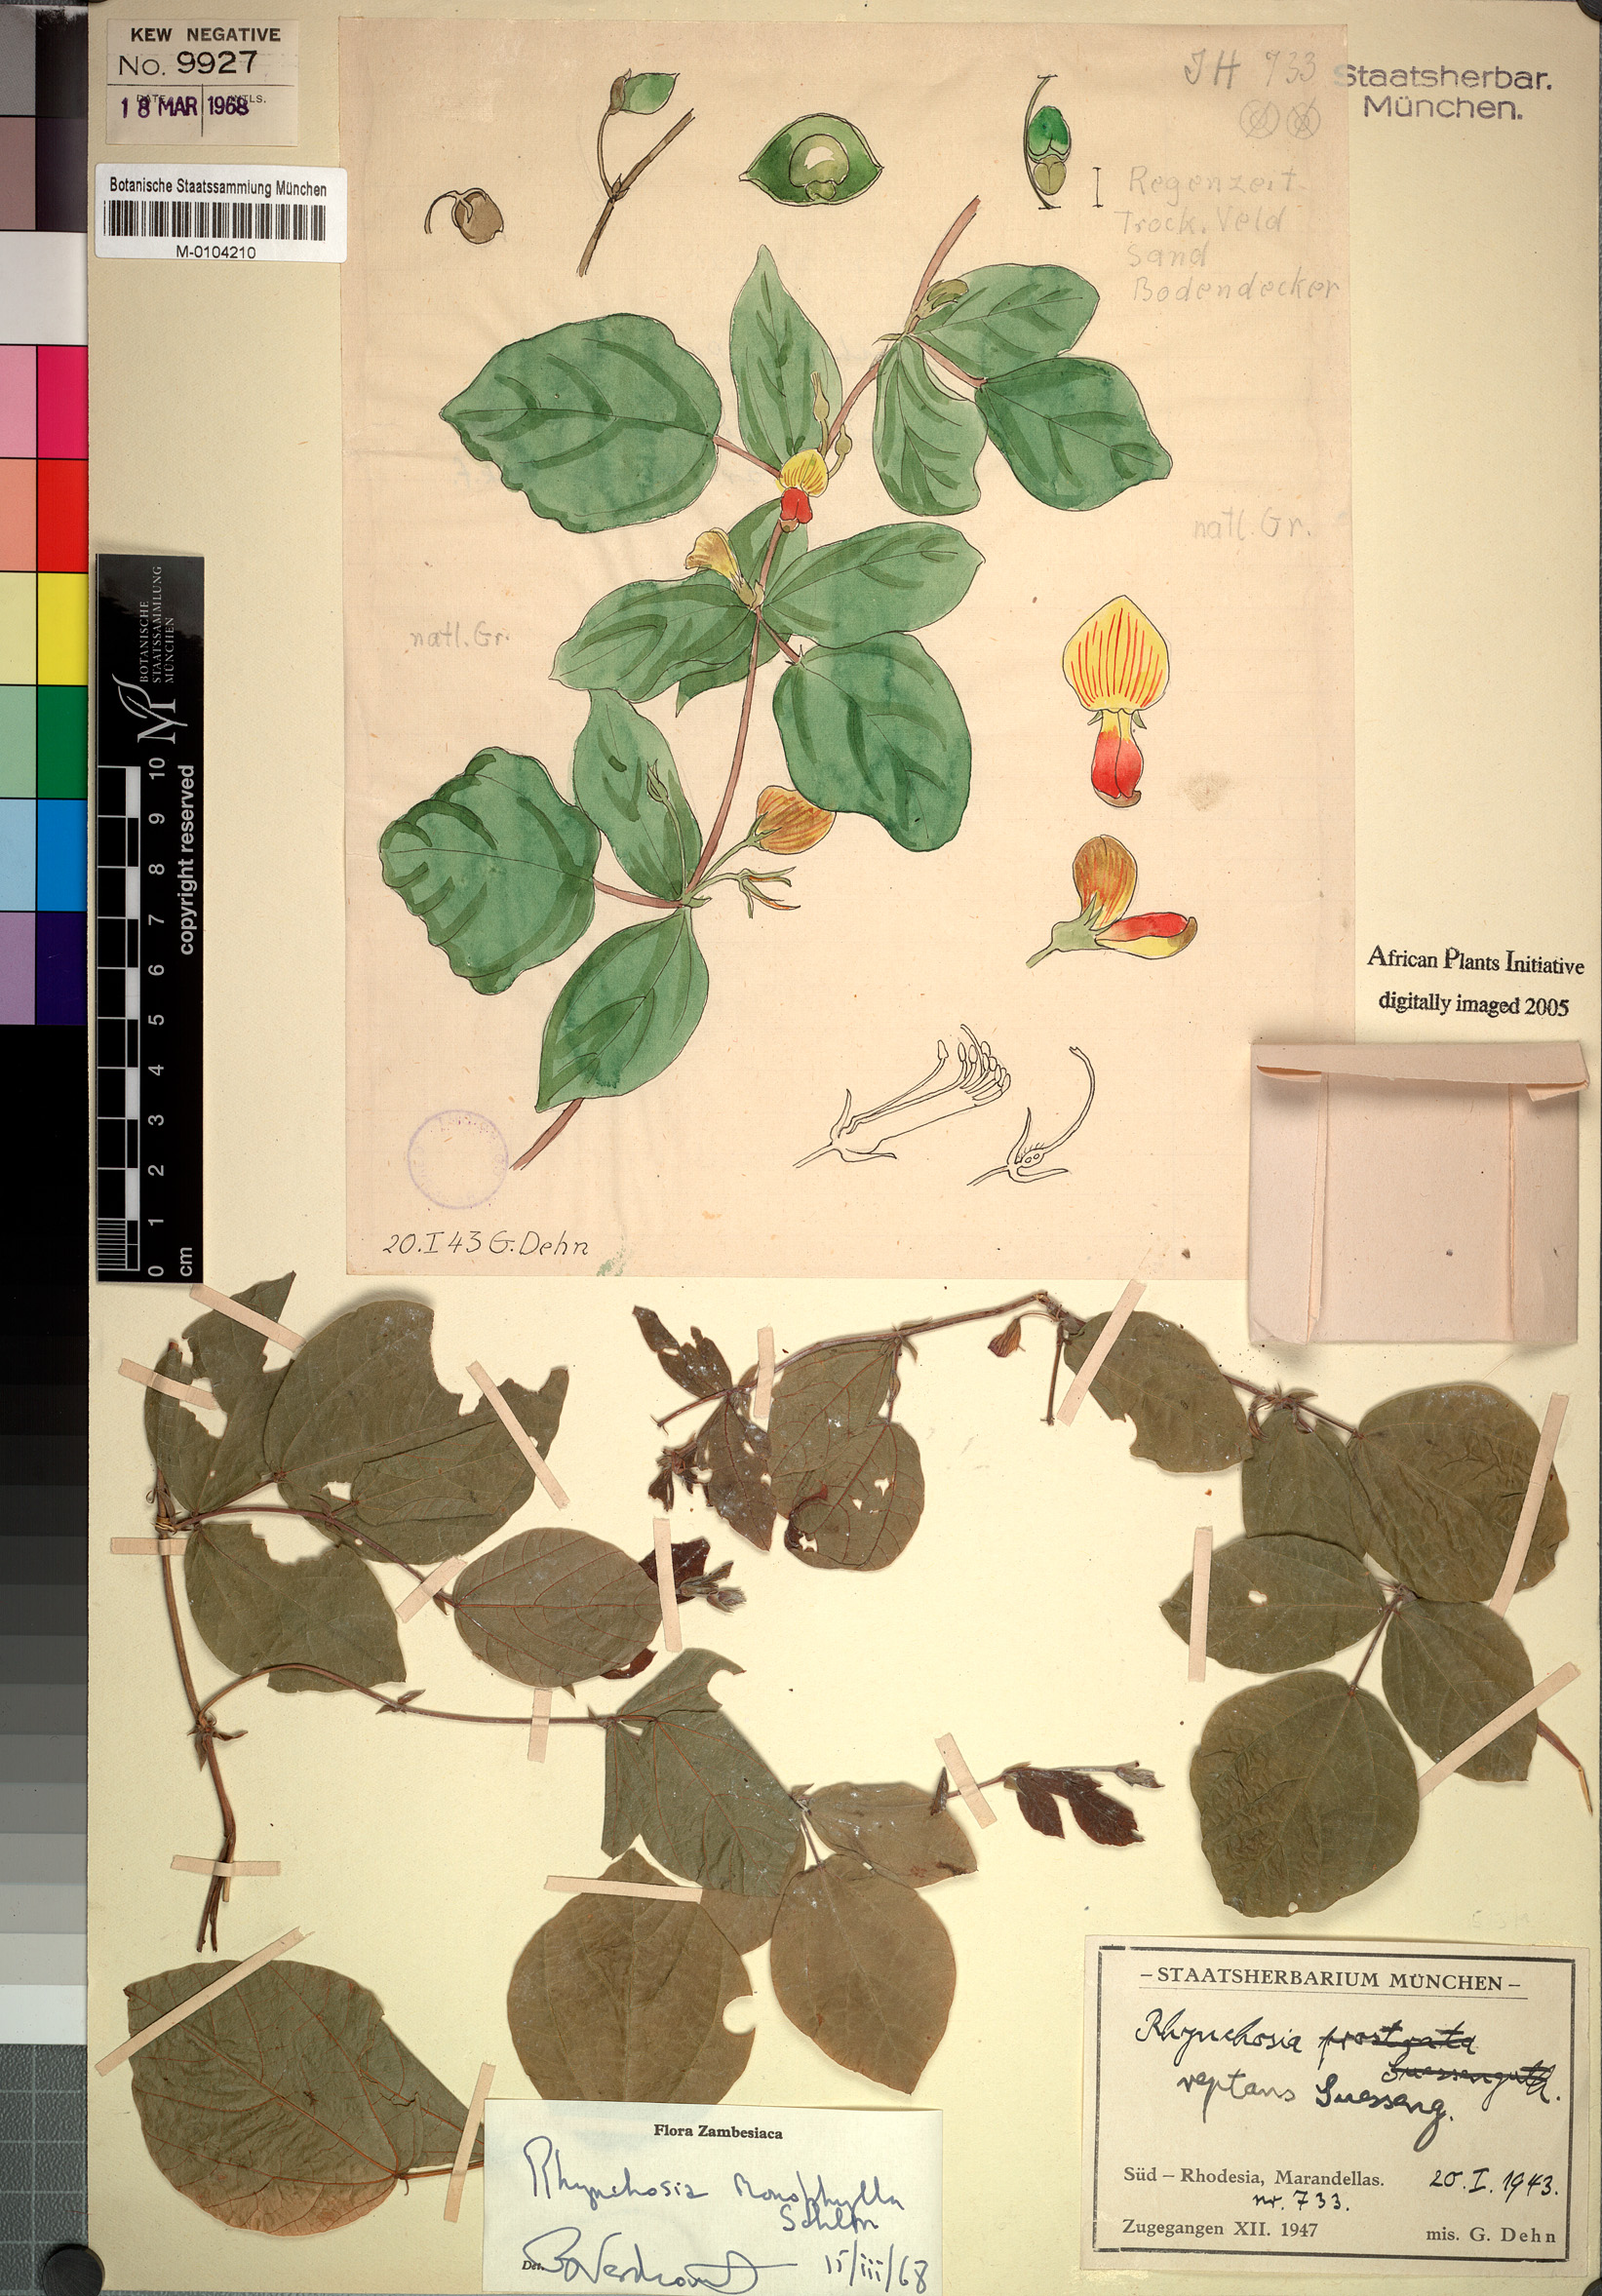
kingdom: Plantae
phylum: Tracheophyta
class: Magnoliopsida
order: Fabales
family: Fabaceae
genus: Rhynchosia
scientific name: Rhynchosia monophylla
